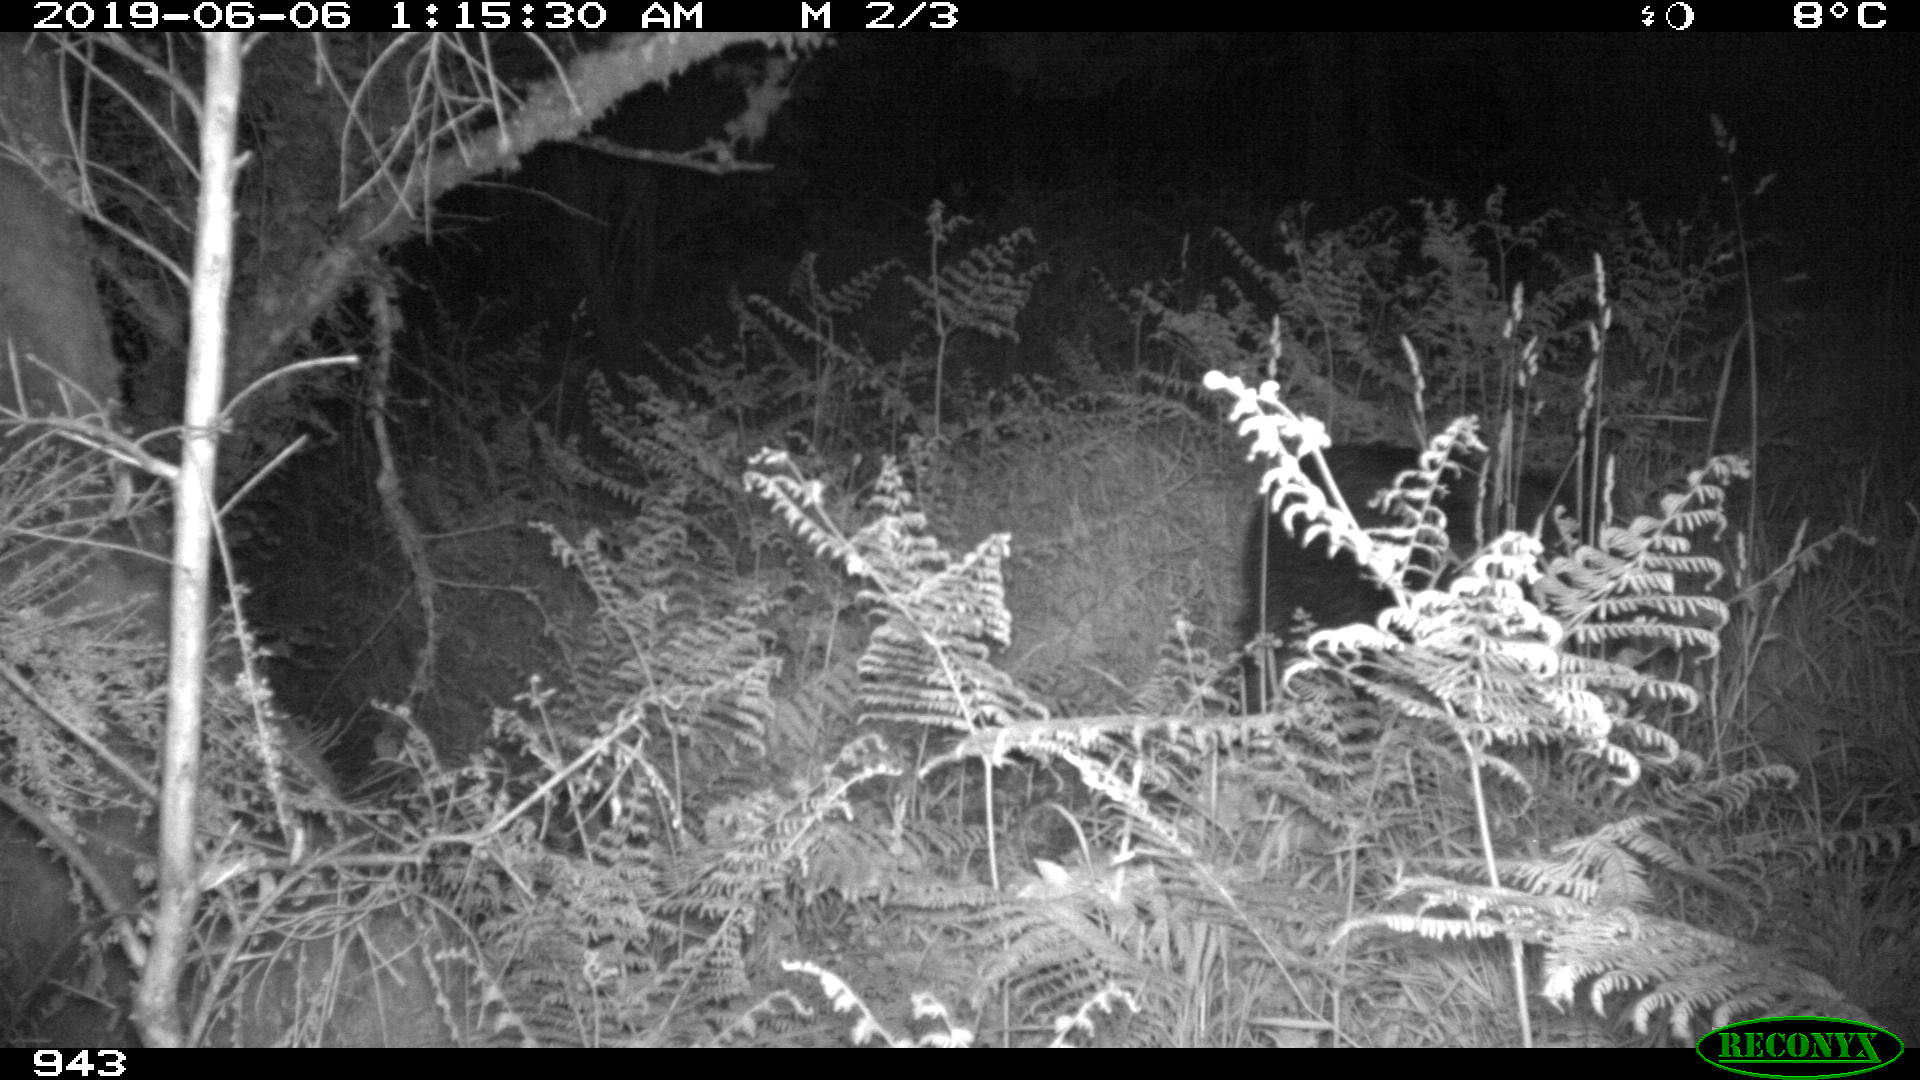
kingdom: Animalia
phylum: Chordata
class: Mammalia
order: Artiodactyla
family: Suidae
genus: Sus
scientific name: Sus scrofa
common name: Wild boar
